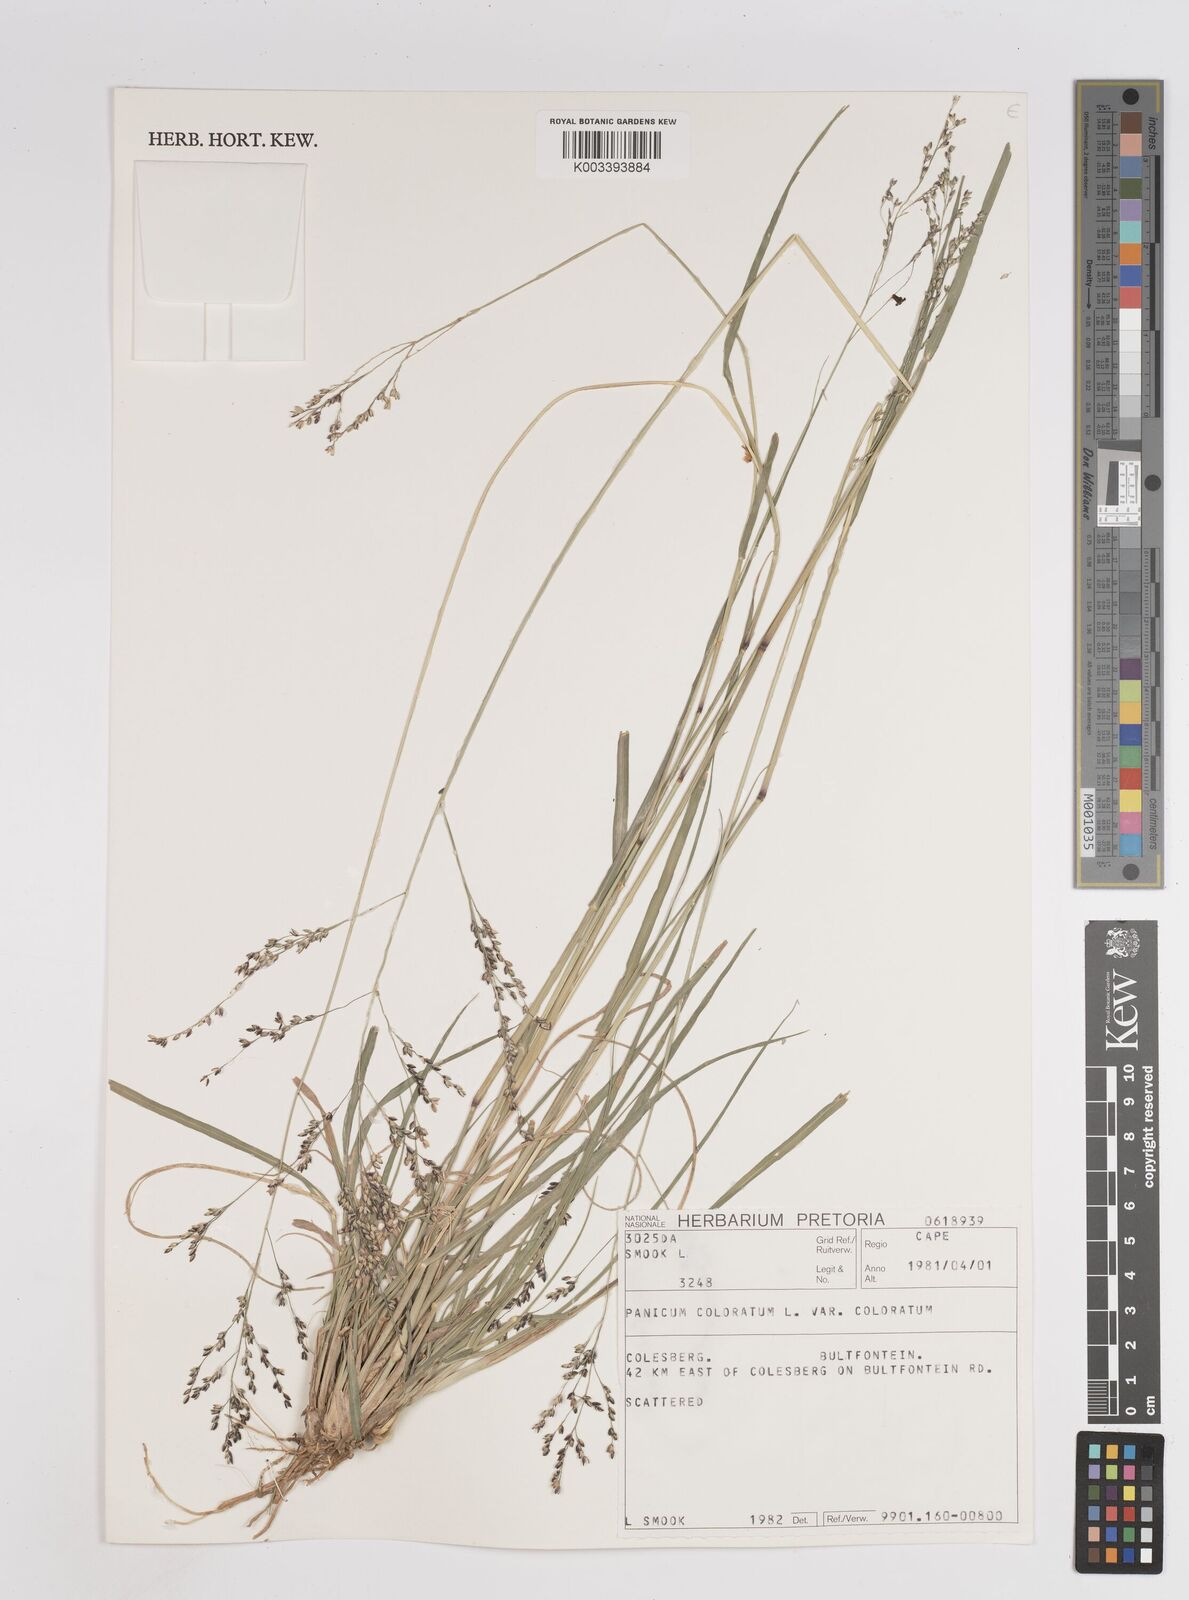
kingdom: Plantae
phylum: Tracheophyta
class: Liliopsida
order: Poales
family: Poaceae
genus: Panicum
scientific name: Panicum
